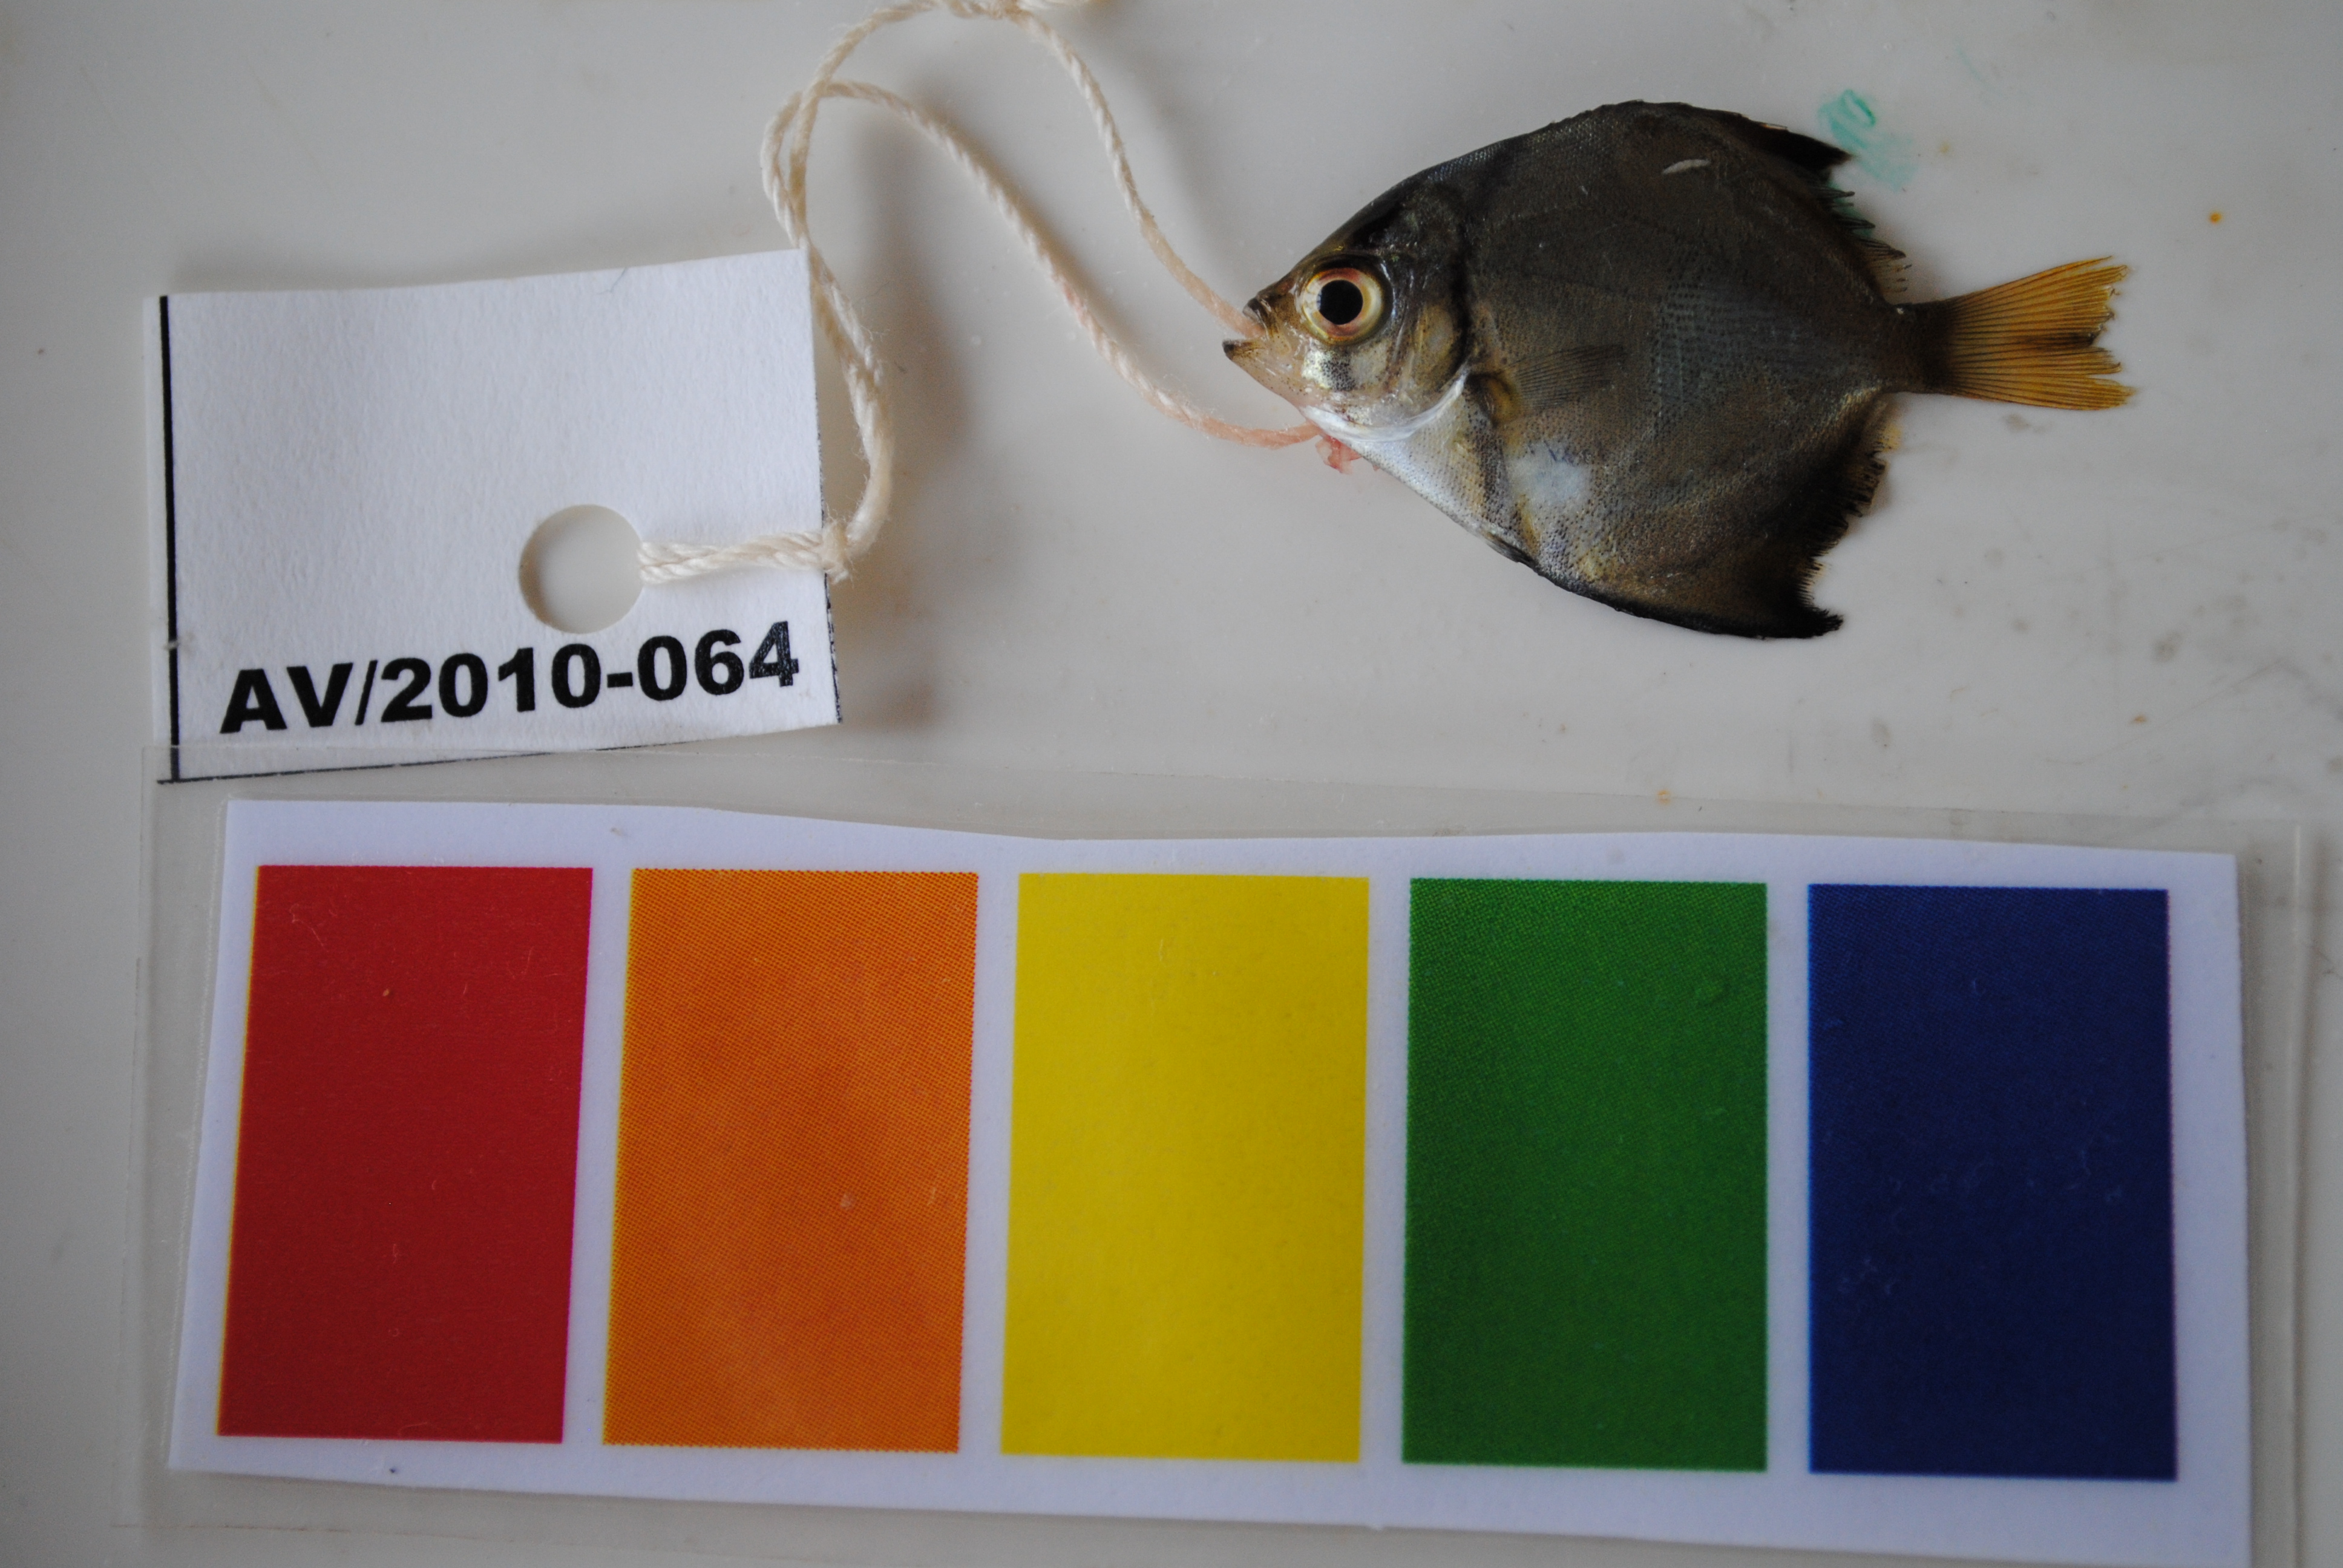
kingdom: Animalia
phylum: Chordata
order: Perciformes
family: Monodactylidae
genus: Monodactylus
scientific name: Monodactylus argenteus
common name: Silver moony
